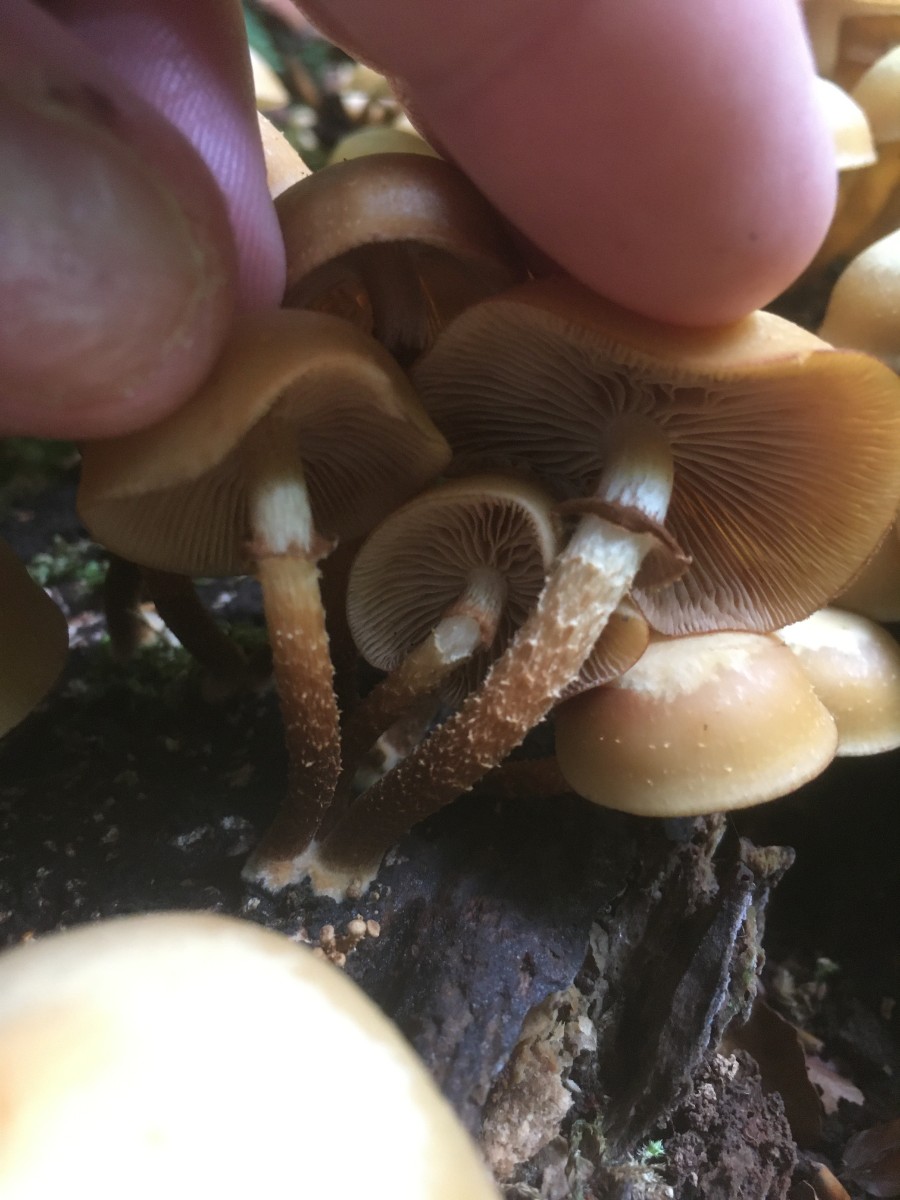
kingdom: Fungi
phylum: Basidiomycota
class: Agaricomycetes
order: Agaricales
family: Strophariaceae
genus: Kuehneromyces
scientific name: Kuehneromyces mutabilis
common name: foranderlig skælhat
